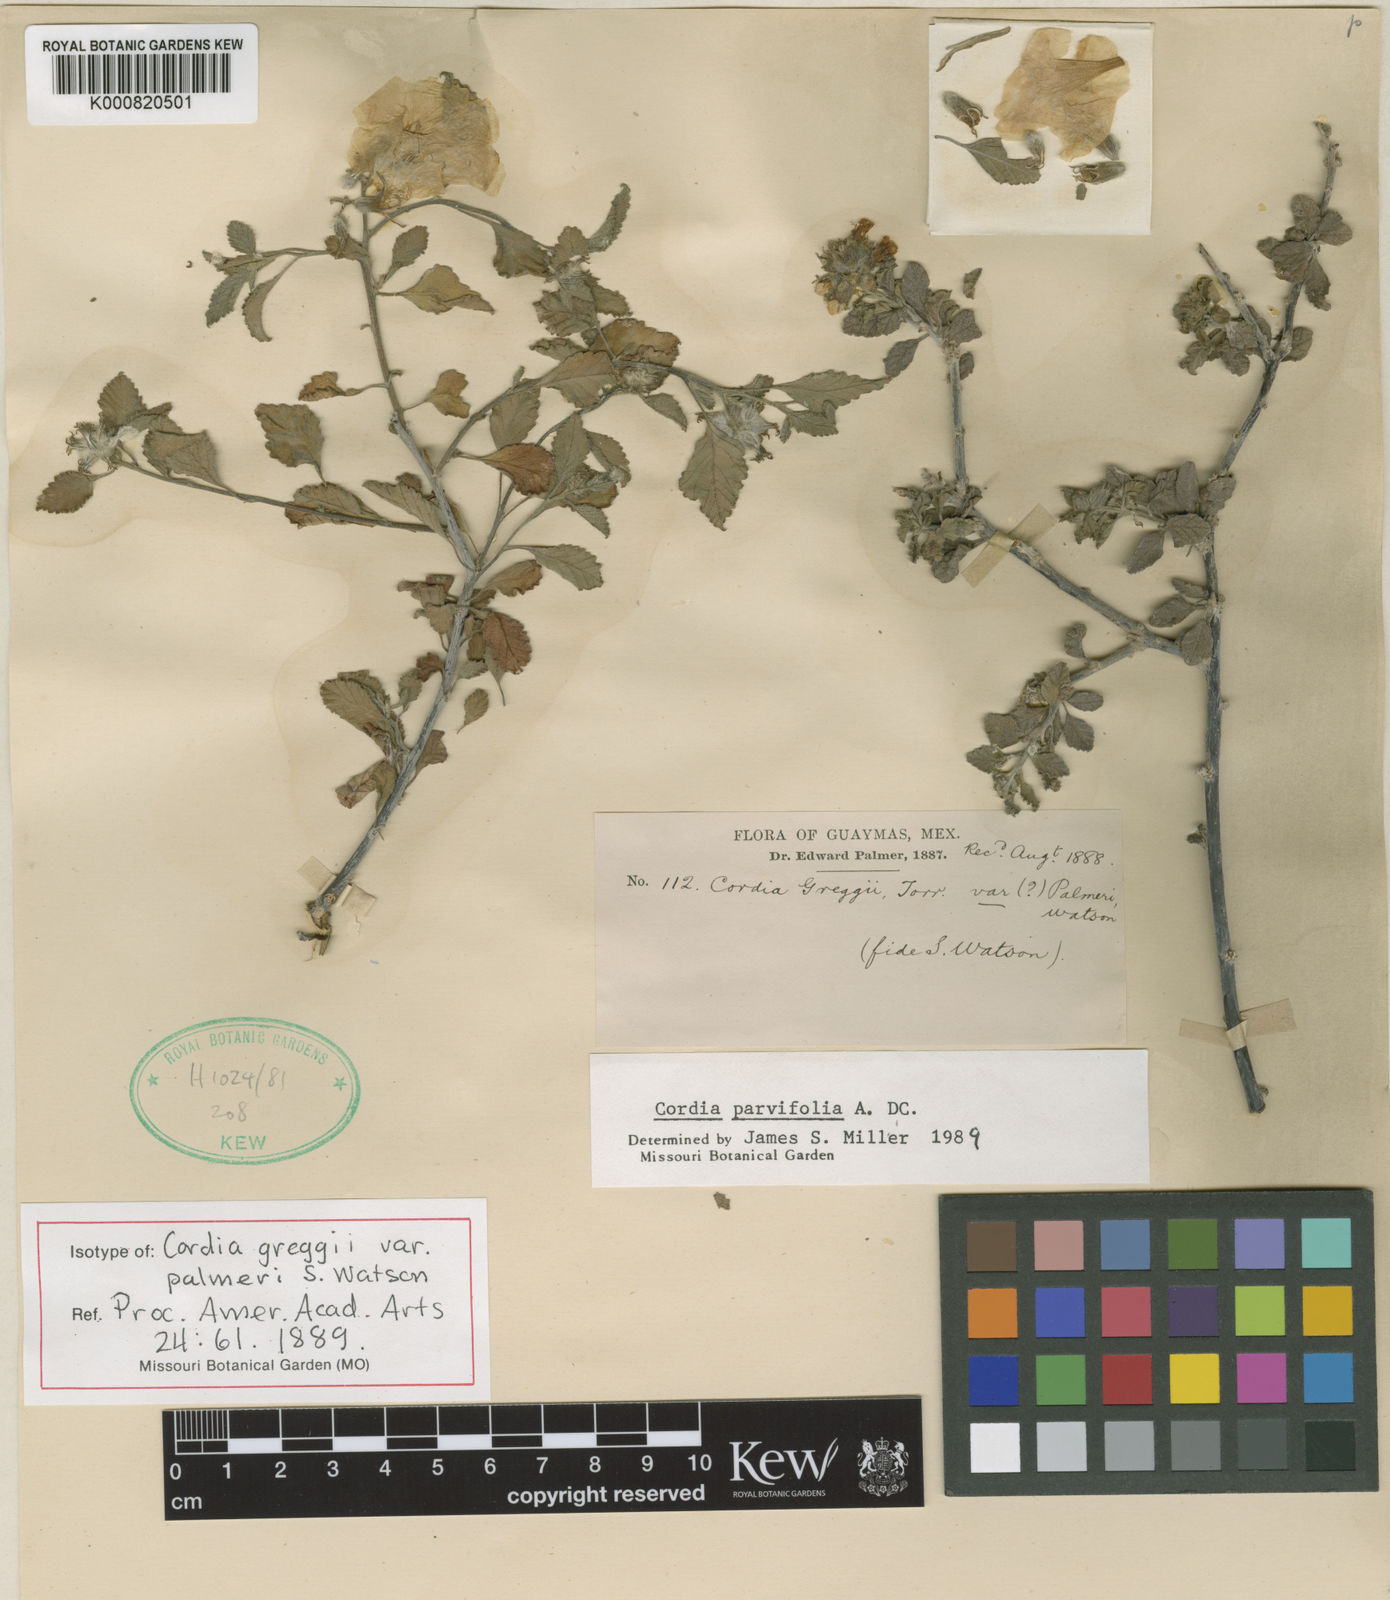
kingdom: Plantae
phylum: Tracheophyta
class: Magnoliopsida
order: Boraginales
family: Cordiaceae
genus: Cordia
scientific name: Cordia parvifolia
